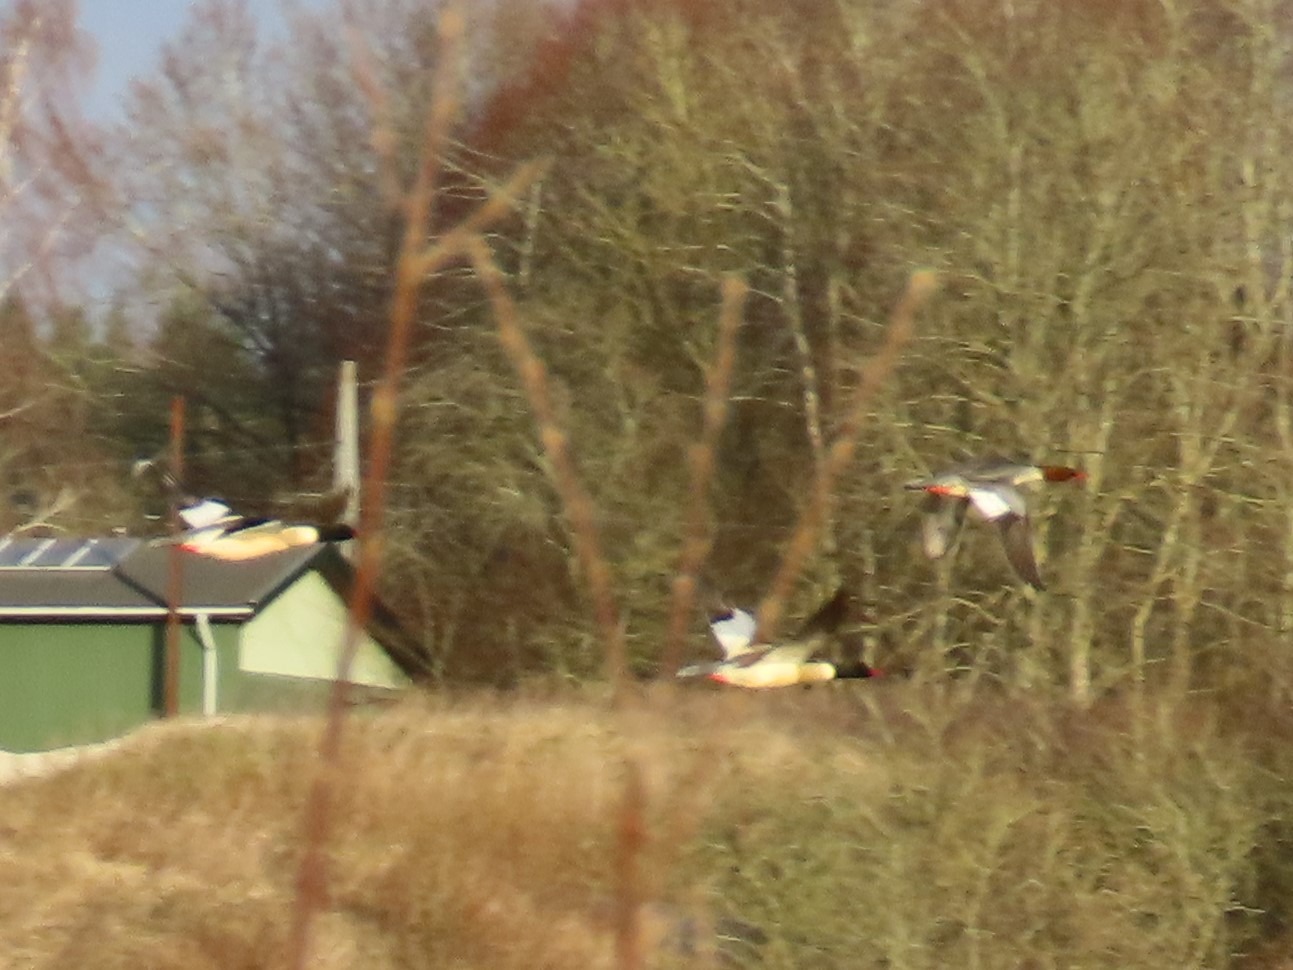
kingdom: Animalia
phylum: Chordata
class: Aves
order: Anseriformes
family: Anatidae
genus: Mergus
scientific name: Mergus merganser
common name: Stor skallesluger
